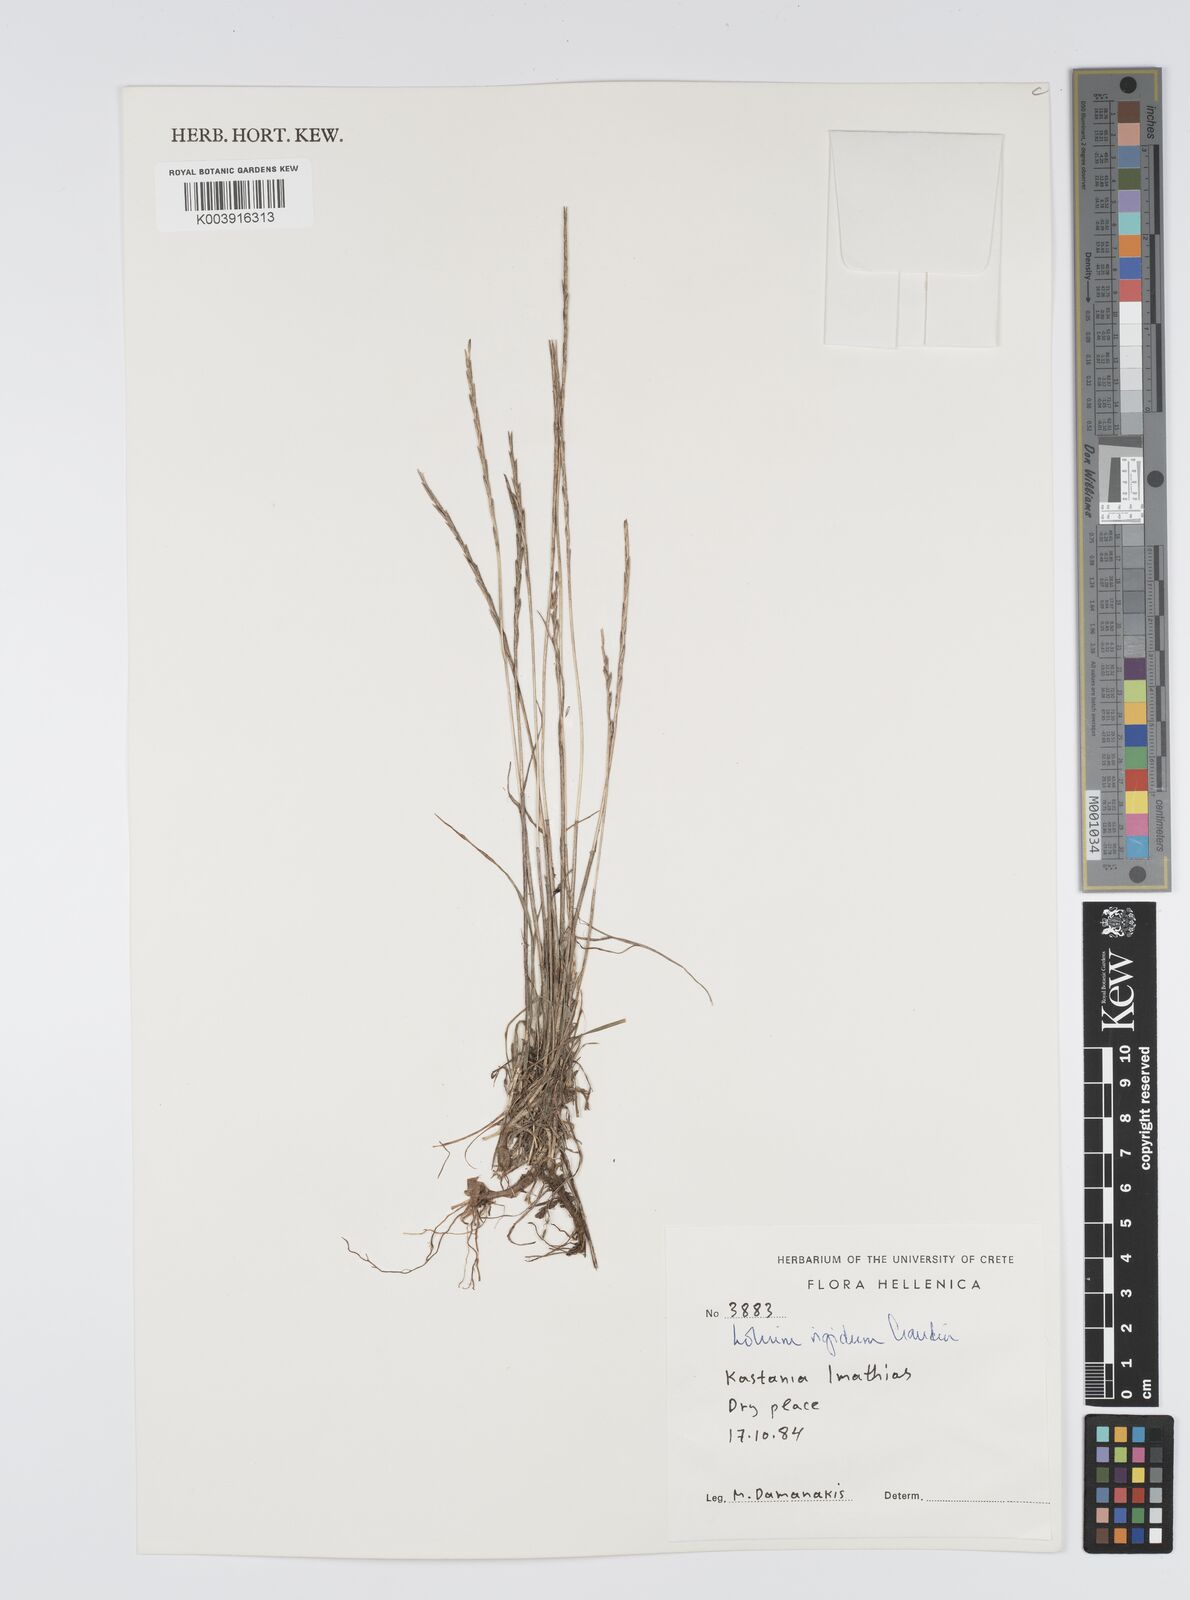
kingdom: Plantae
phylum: Tracheophyta
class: Liliopsida
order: Poales
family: Poaceae
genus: Lolium
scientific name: Lolium rigidum
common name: Wimmera ryegrass
